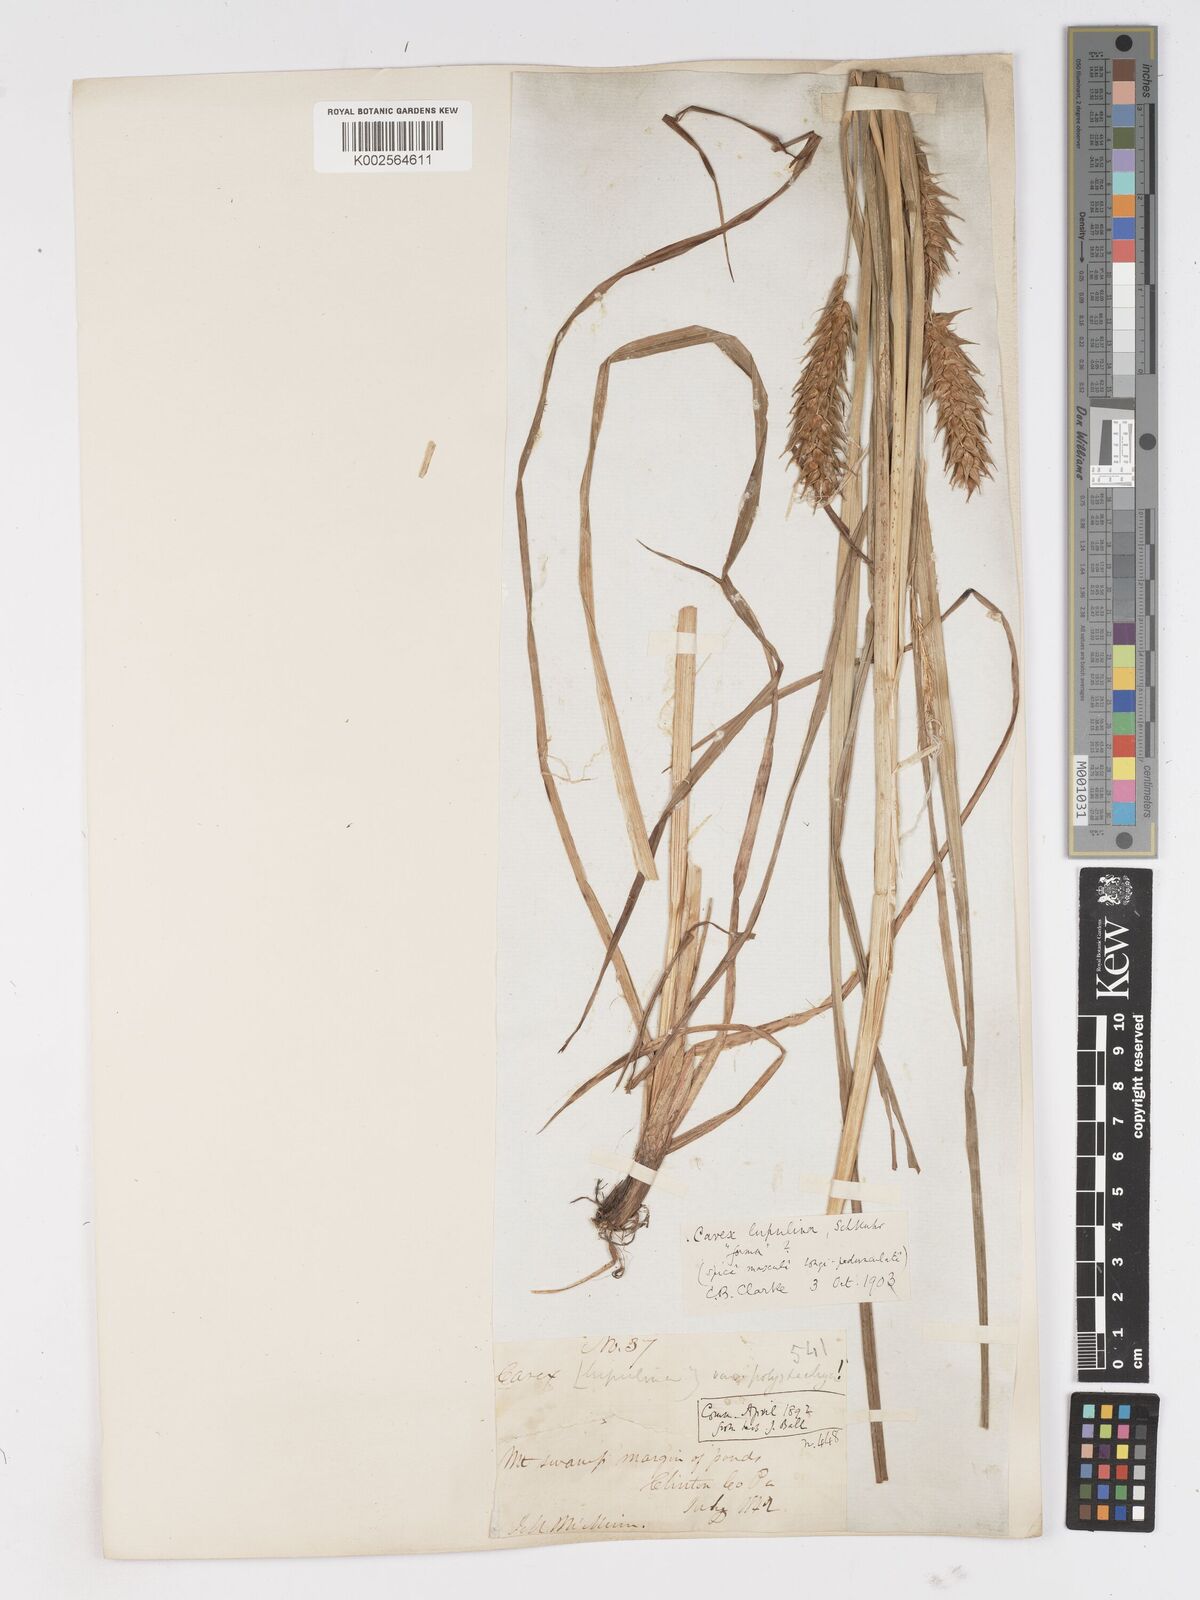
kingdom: Plantae
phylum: Tracheophyta
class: Liliopsida
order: Poales
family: Cyperaceae
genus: Carex
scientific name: Carex lupuliformis
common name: False hop sedge
